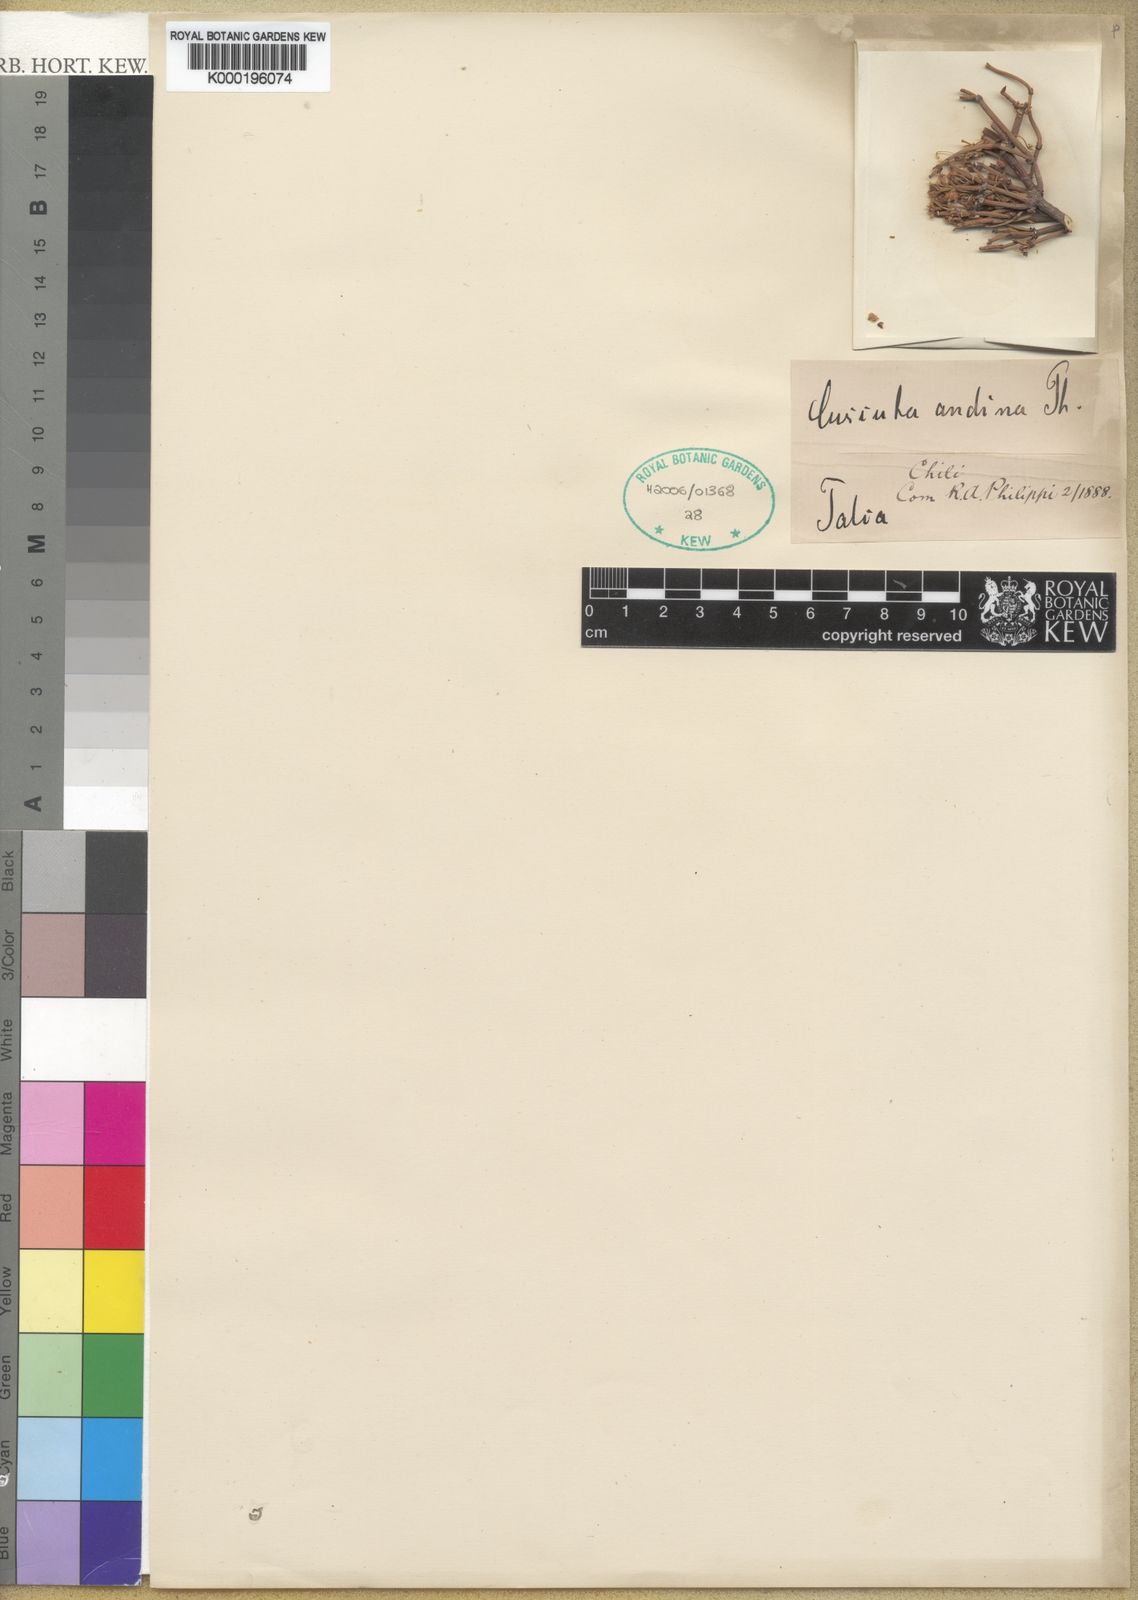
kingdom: Plantae
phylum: Tracheophyta
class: Magnoliopsida
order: Solanales
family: Convolvulaceae
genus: Cuscuta
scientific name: Cuscuta andina
